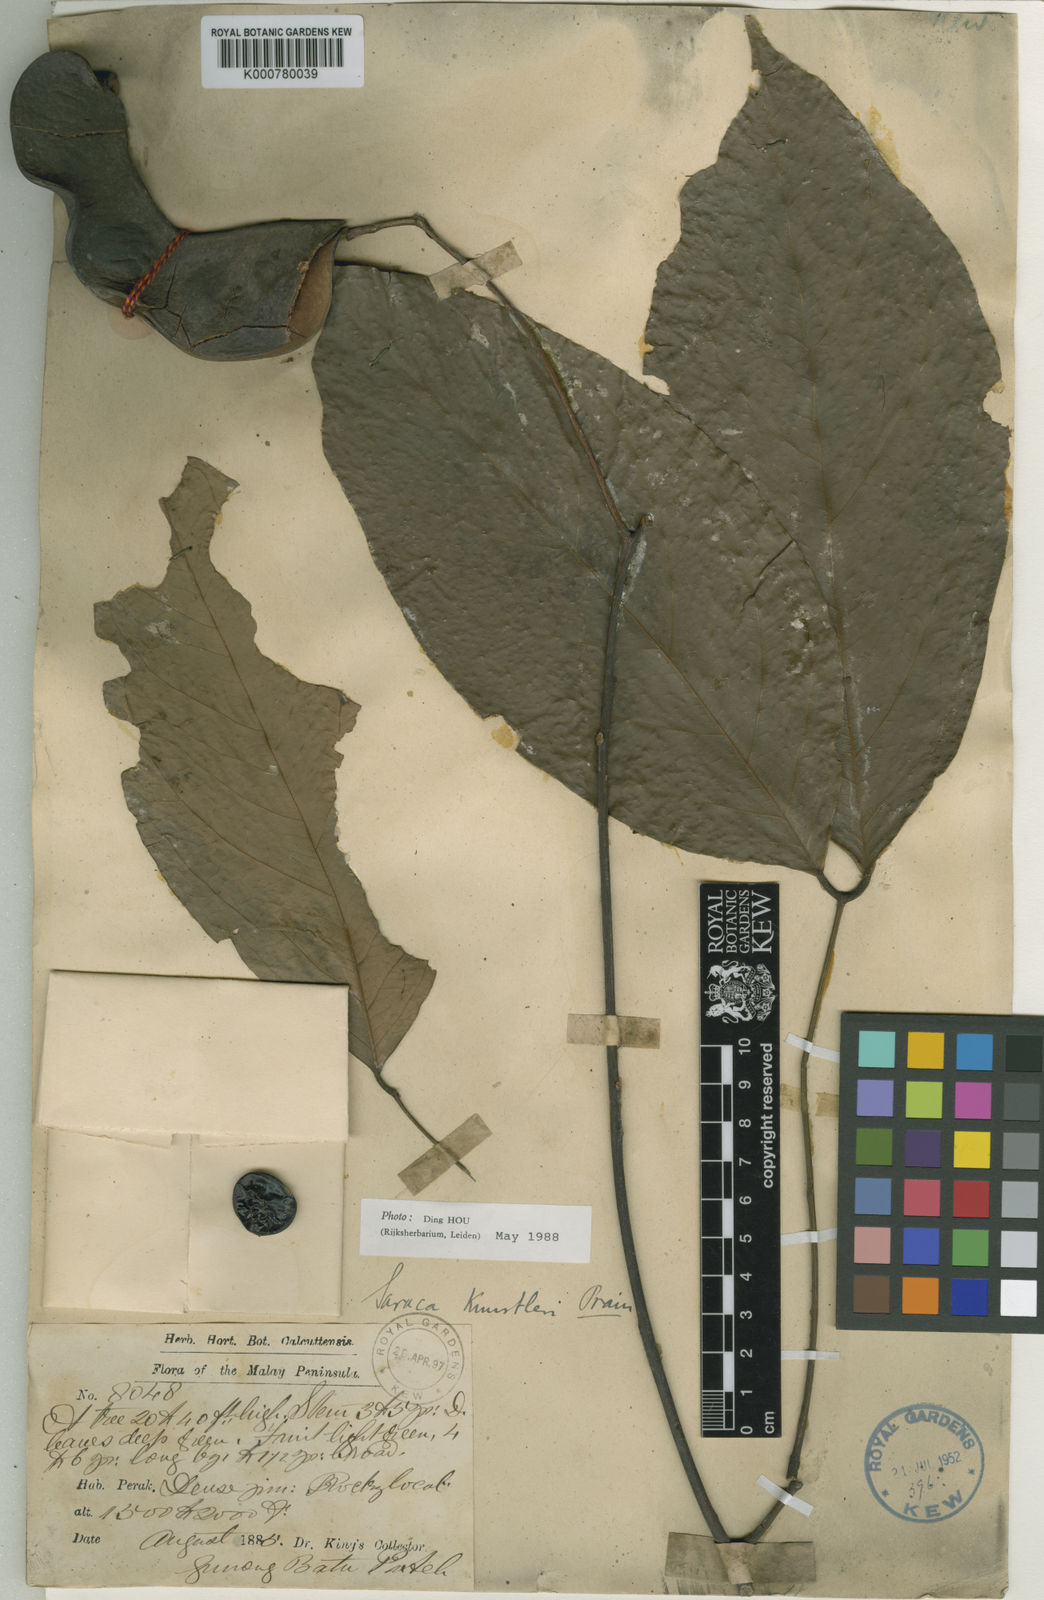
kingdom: Plantae
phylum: Tracheophyta
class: Magnoliopsida
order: Fabales
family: Fabaceae
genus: Saraca
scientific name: Saraca indica
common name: Asoka-tree
